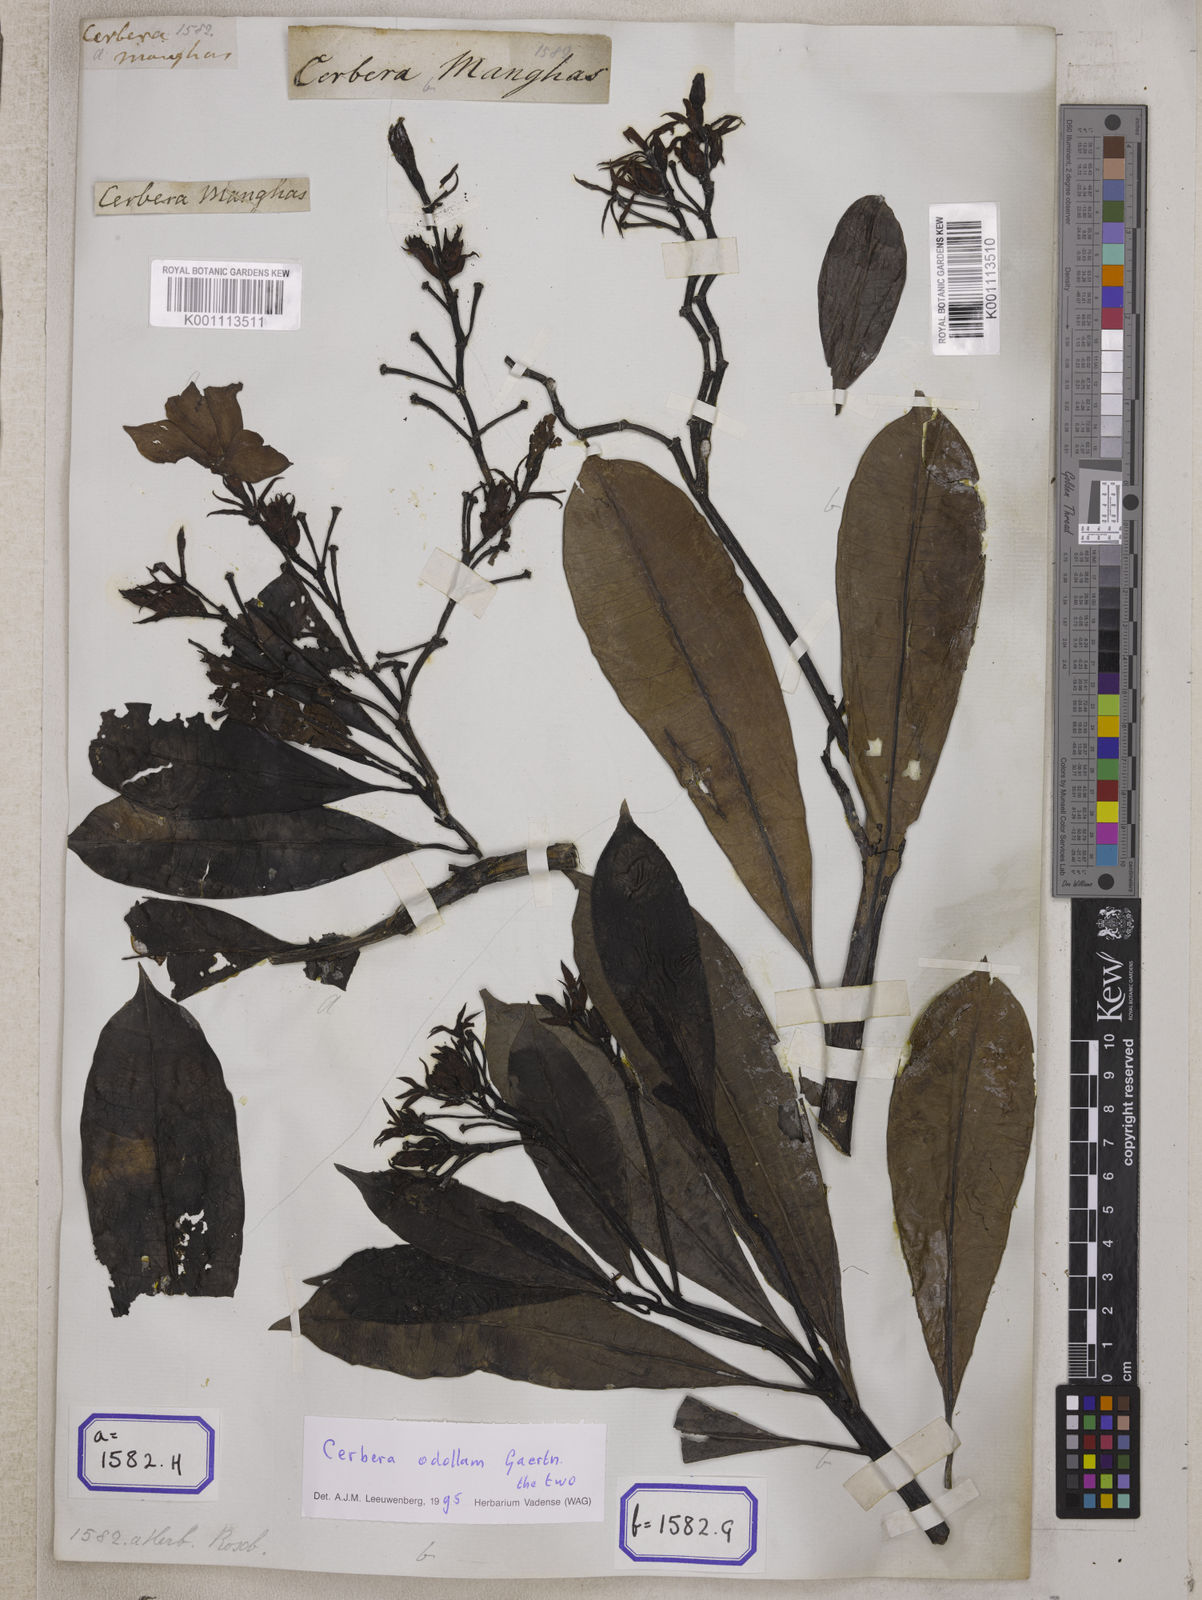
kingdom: Plantae
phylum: Tracheophyta
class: Magnoliopsida
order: Gentianales
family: Apocynaceae
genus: Cerbera
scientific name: Cerbera manghas
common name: Reva
